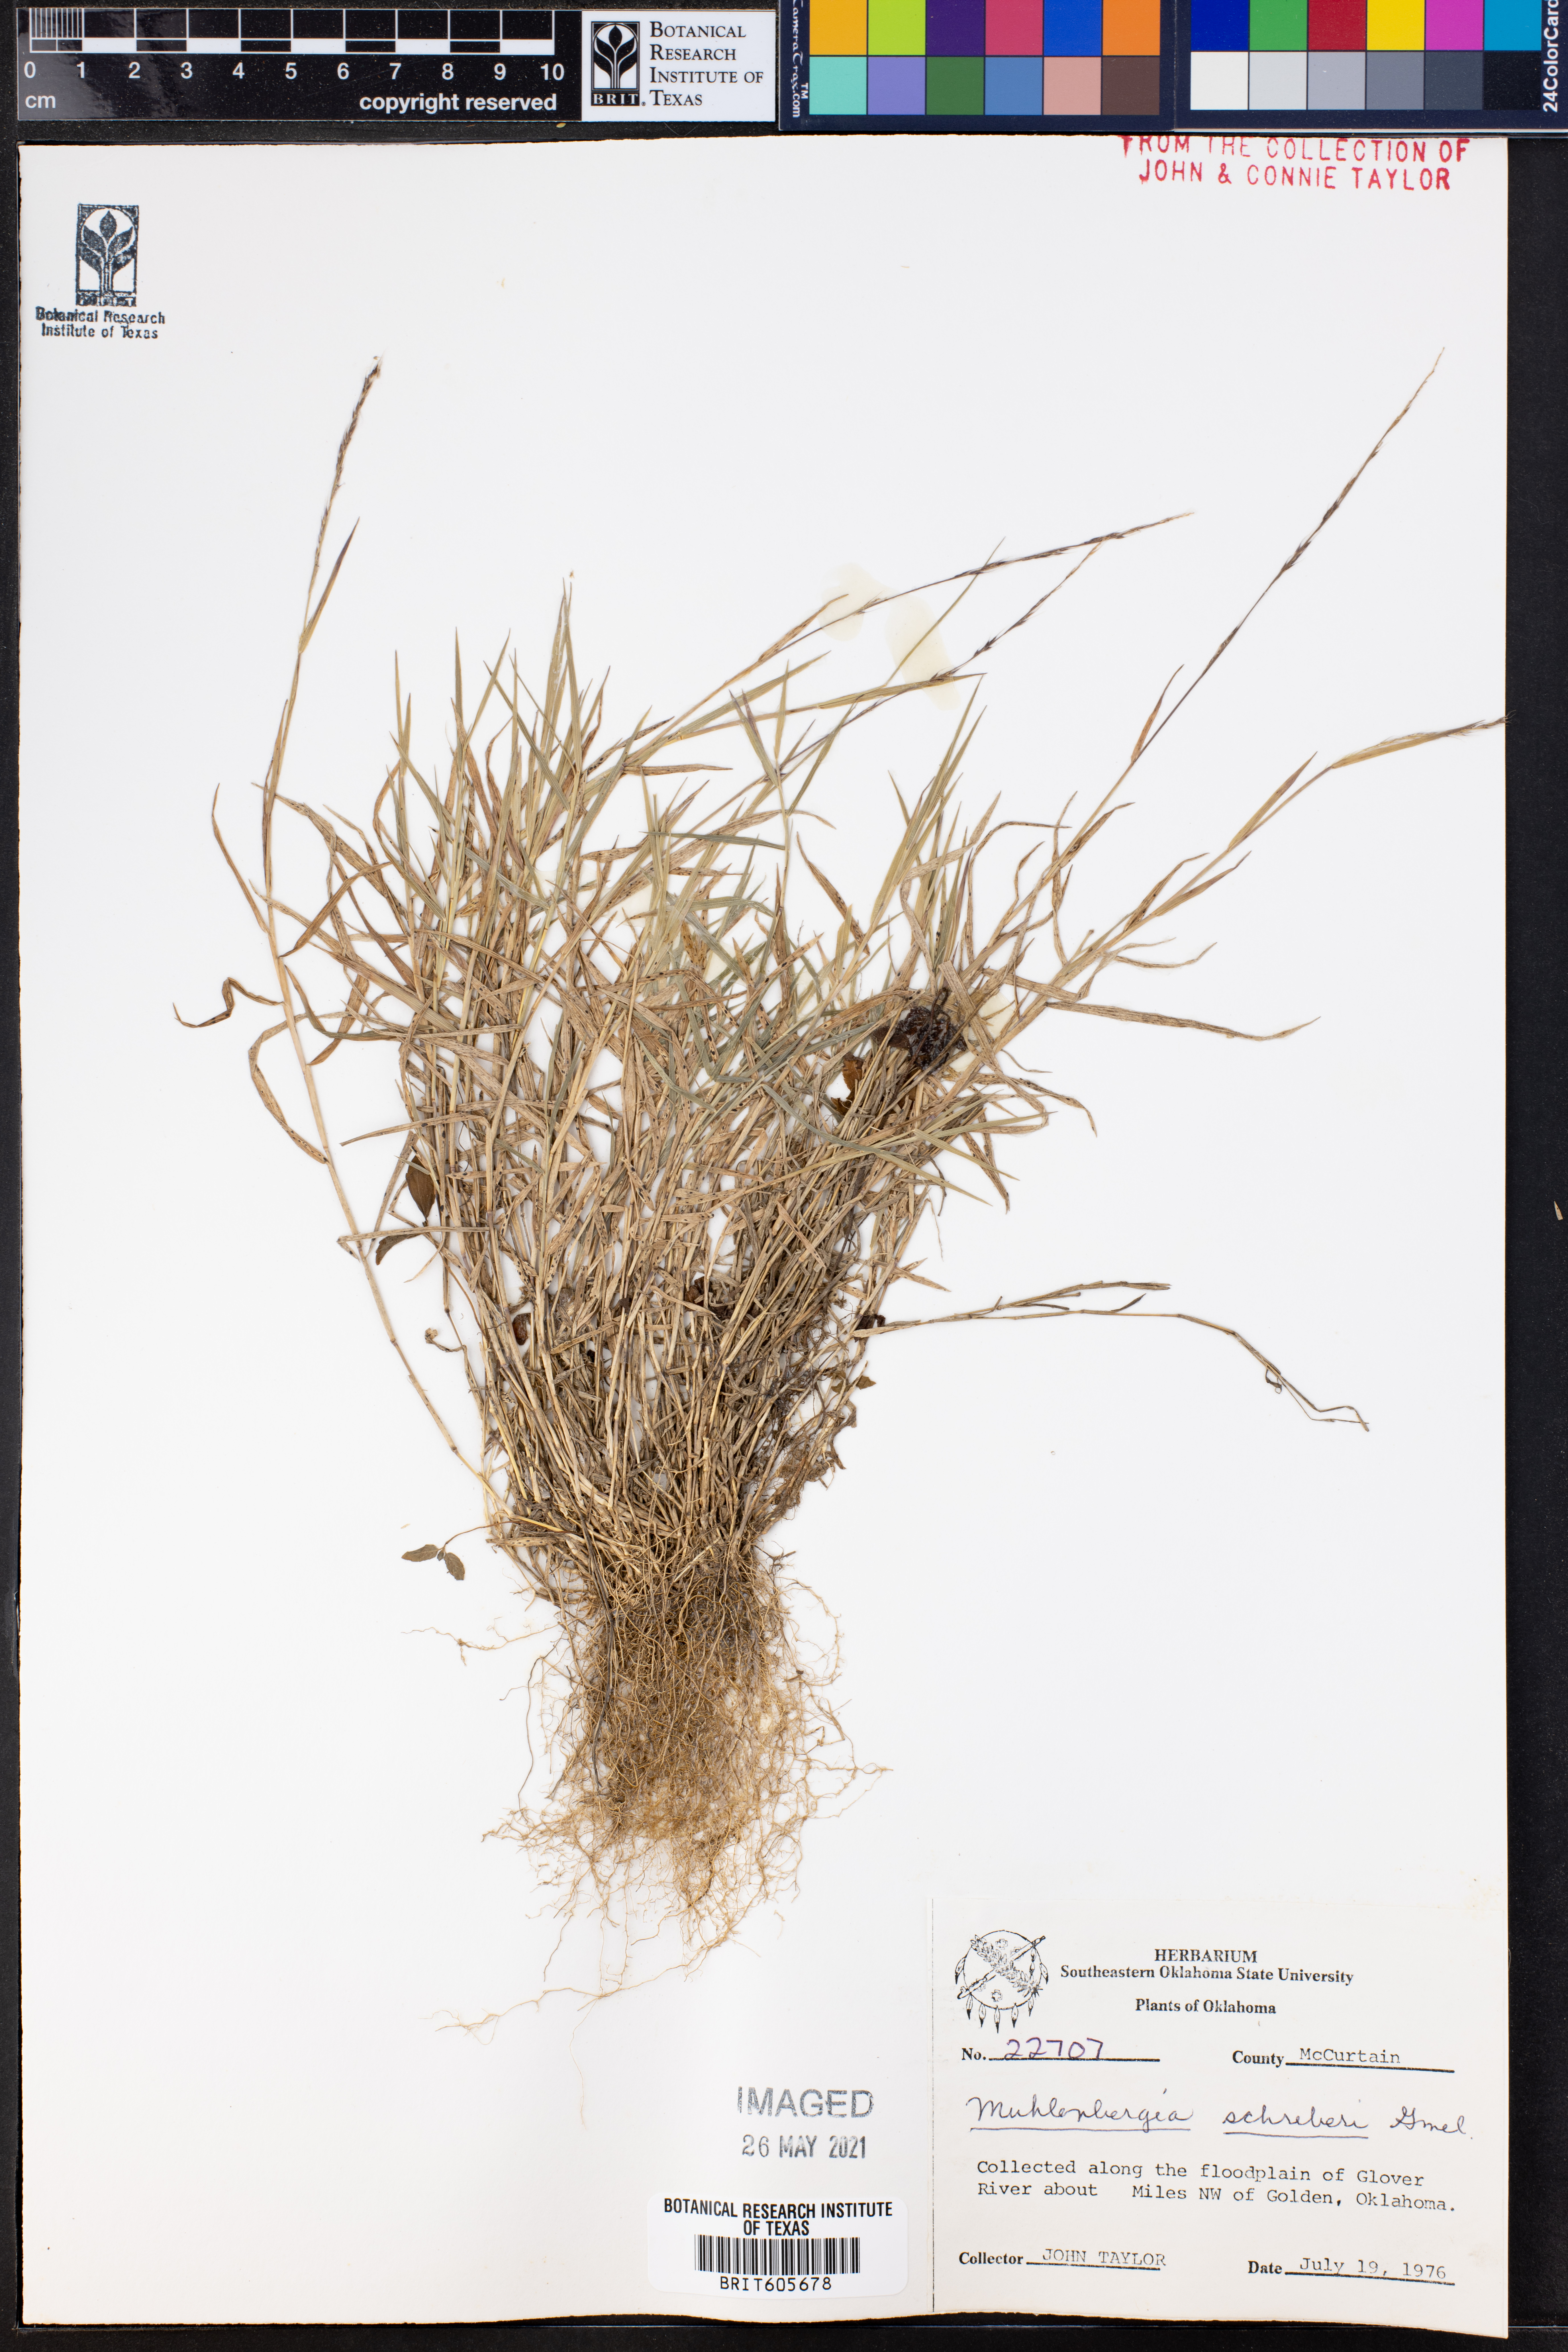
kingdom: Plantae
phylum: Tracheophyta
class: Liliopsida
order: Poales
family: Poaceae
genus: Muhlenbergia
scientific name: Muhlenbergia schreberi
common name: Nimblewill
